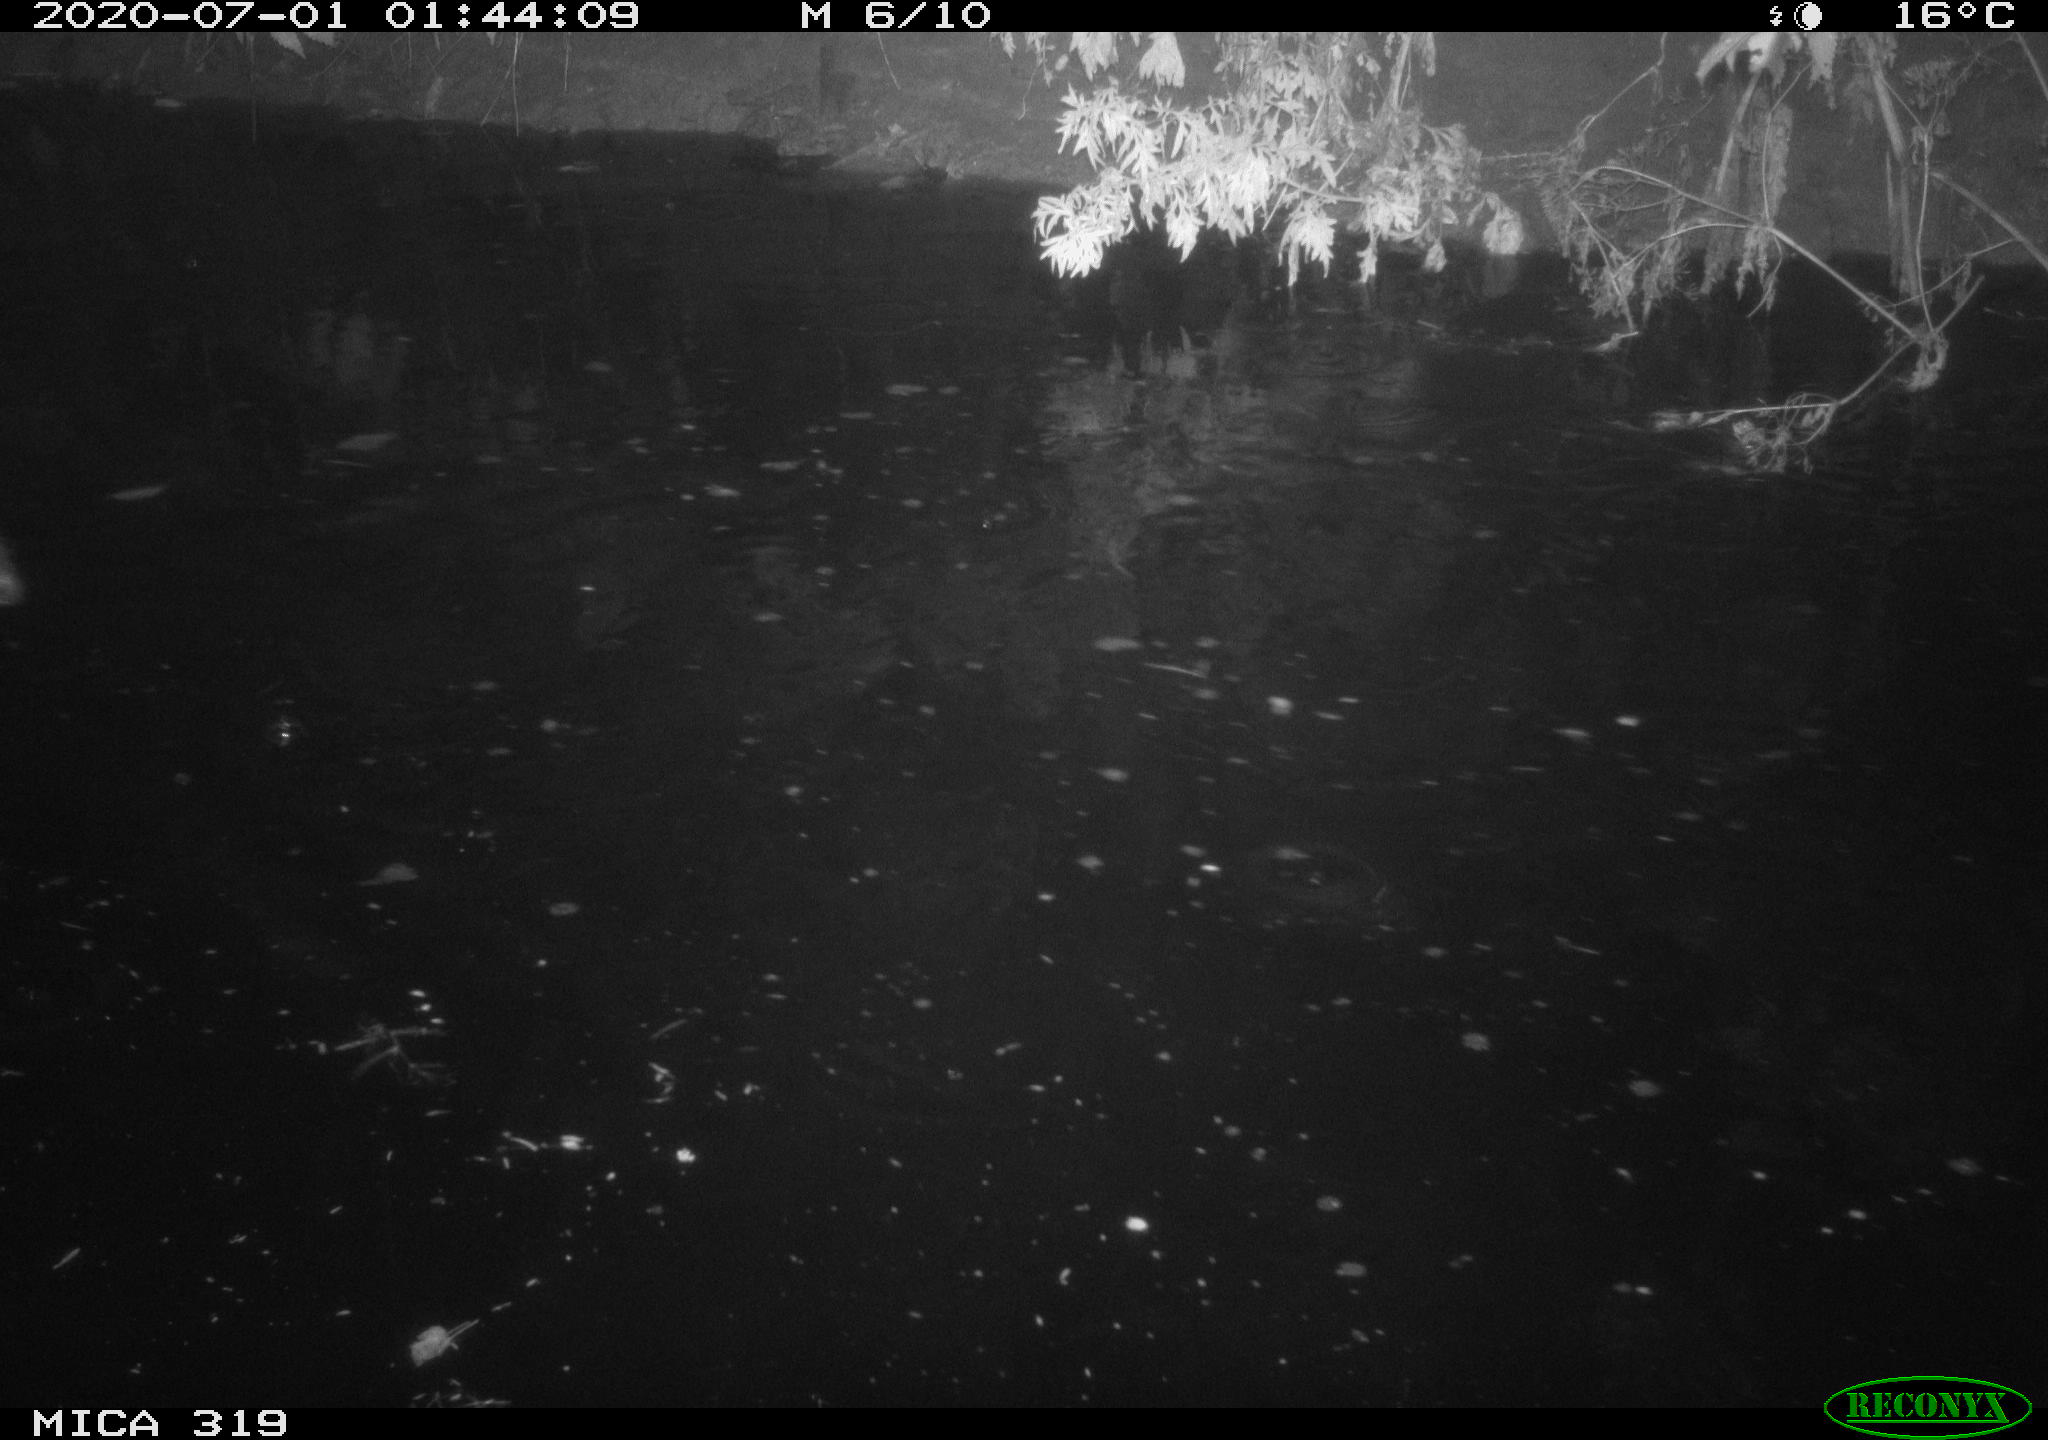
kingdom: Animalia
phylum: Chordata
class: Aves
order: Anseriformes
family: Anatidae
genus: Anas
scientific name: Anas platyrhynchos
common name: Mallard
